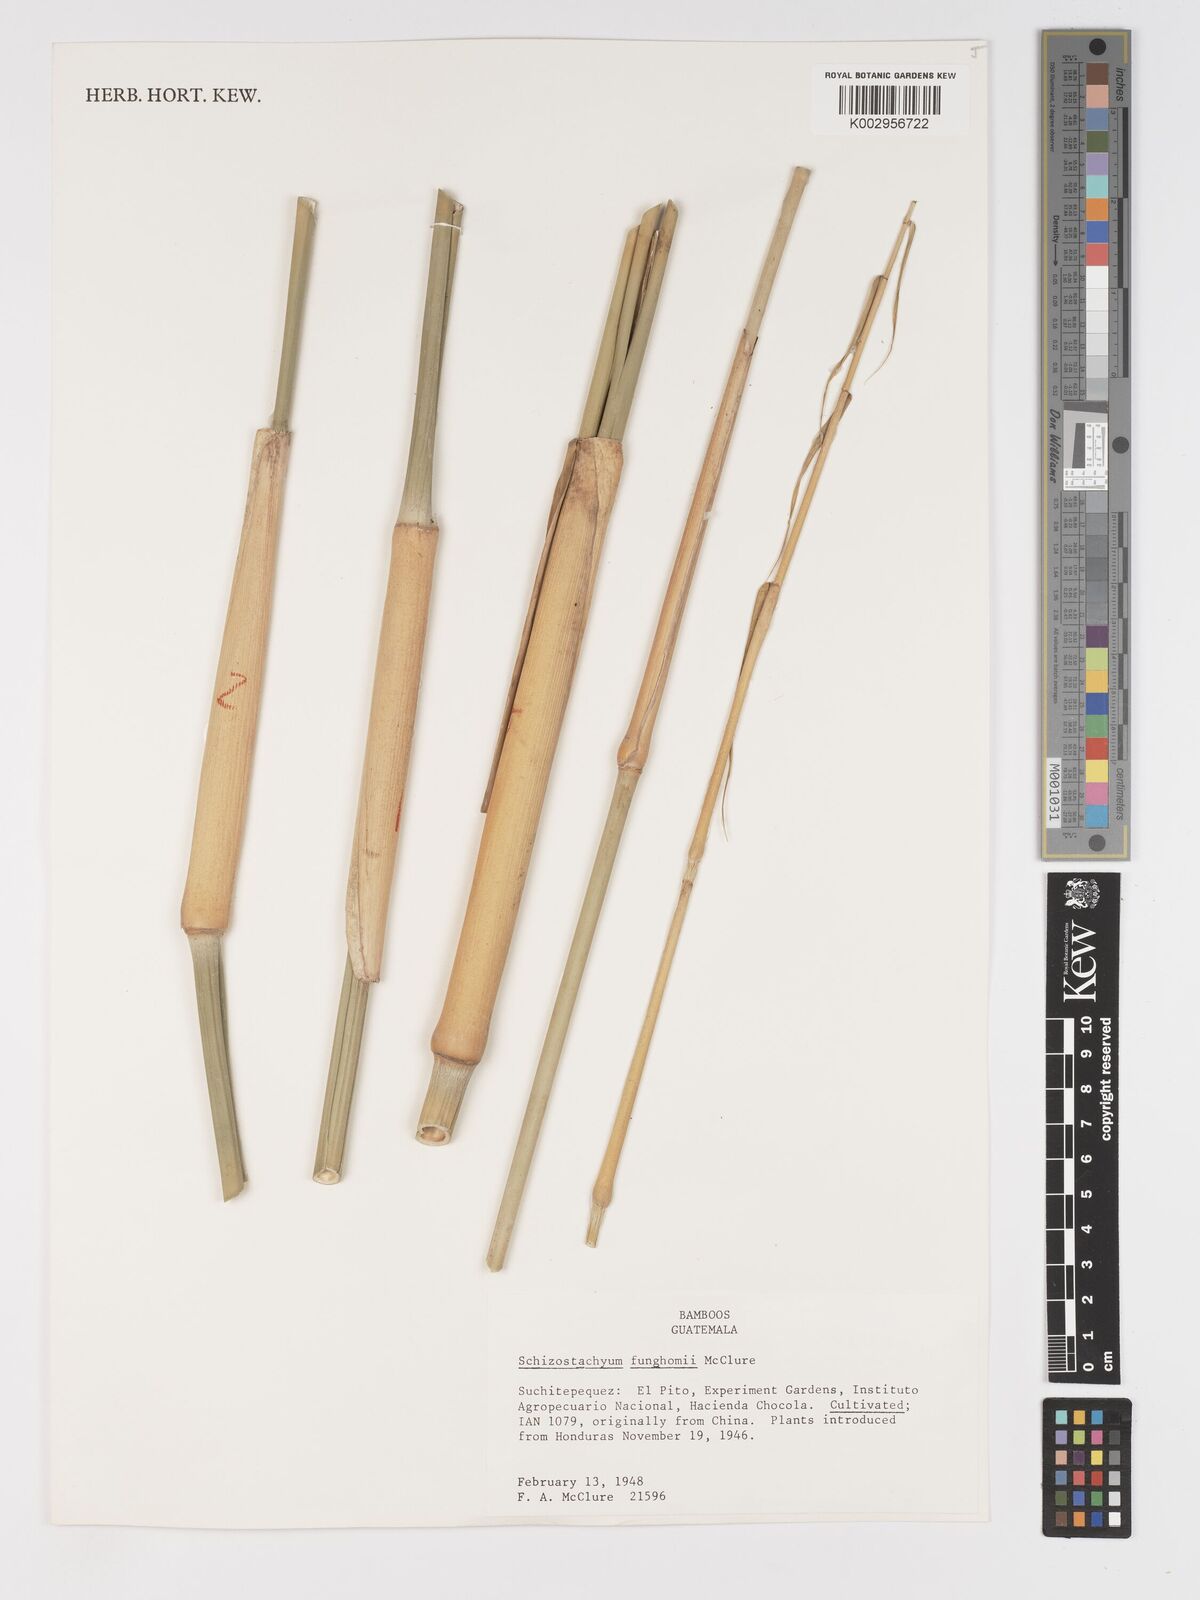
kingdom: Plantae
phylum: Tracheophyta
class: Liliopsida
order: Poales
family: Poaceae
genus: Schizostachyum
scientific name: Schizostachyum funghomii
